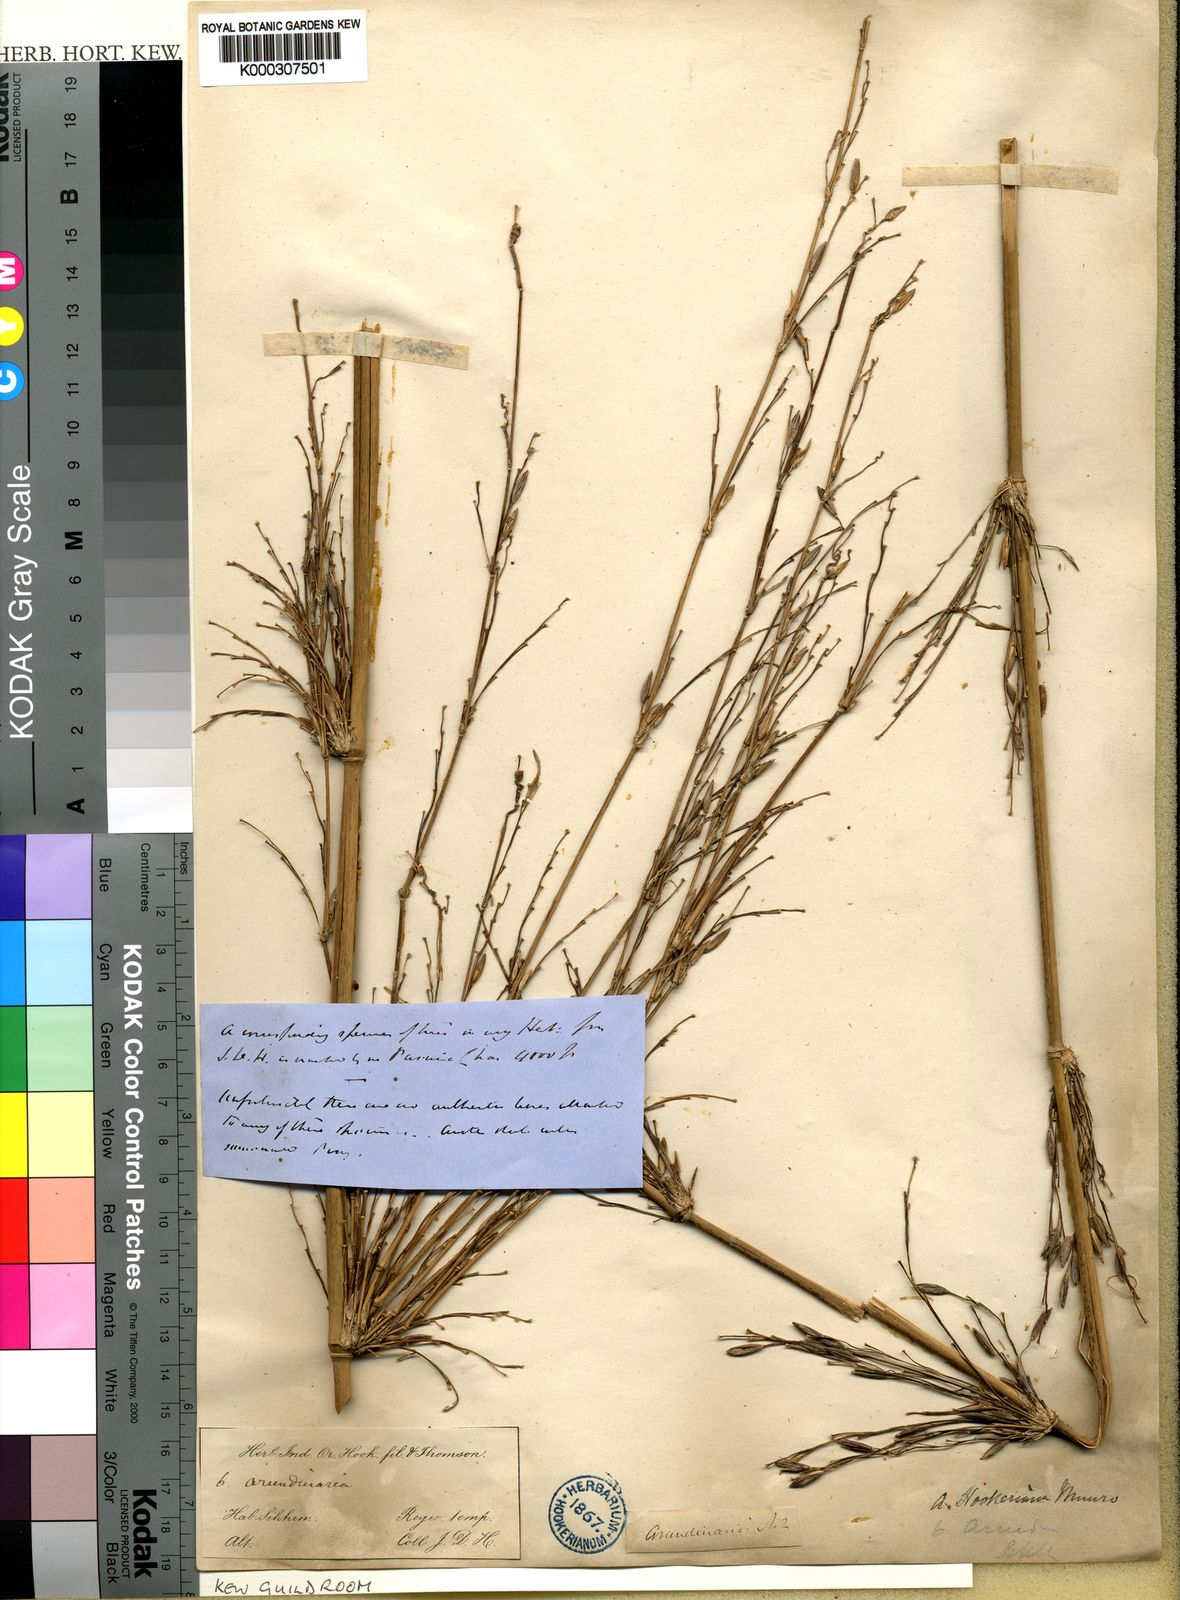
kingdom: Plantae
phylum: Tracheophyta
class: Liliopsida
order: Poales
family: Poaceae
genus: Himalayacalamus
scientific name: Himalayacalamus hookerianus
